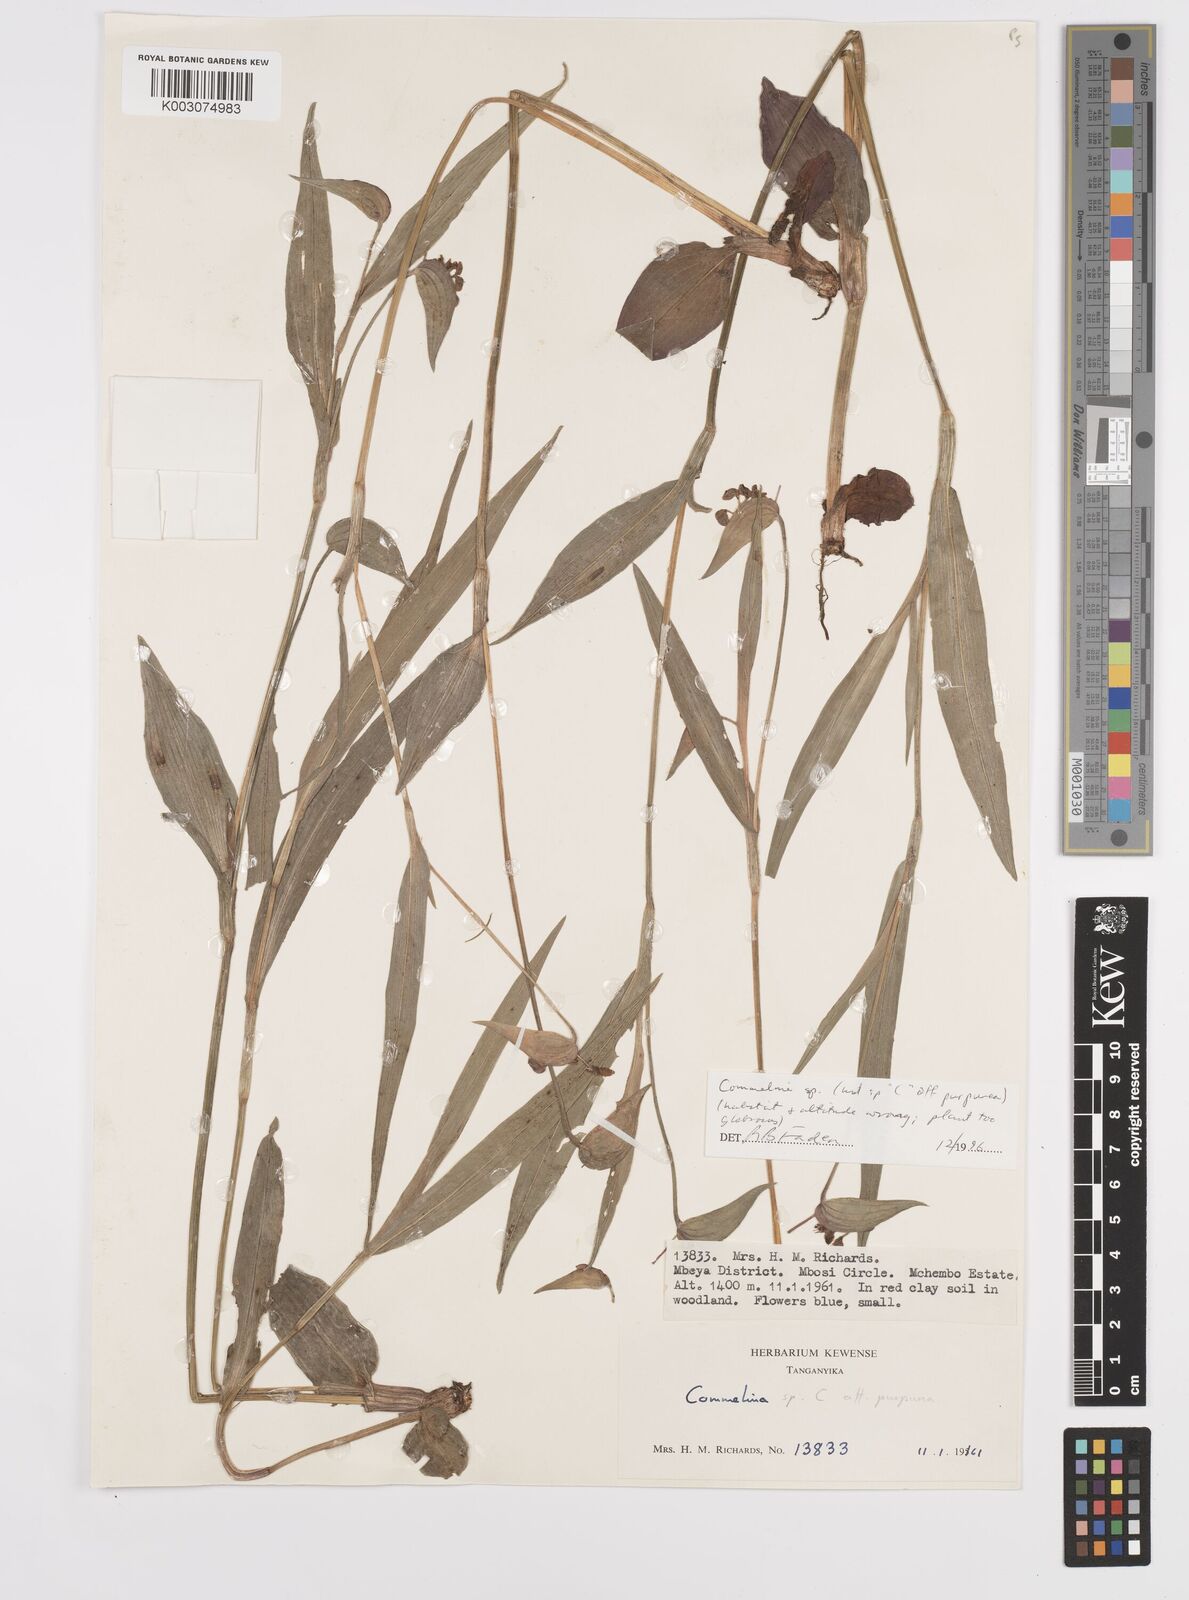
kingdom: Plantae
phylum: Tracheophyta
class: Liliopsida
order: Commelinales
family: Commelinaceae
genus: Commelina
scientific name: Commelina
